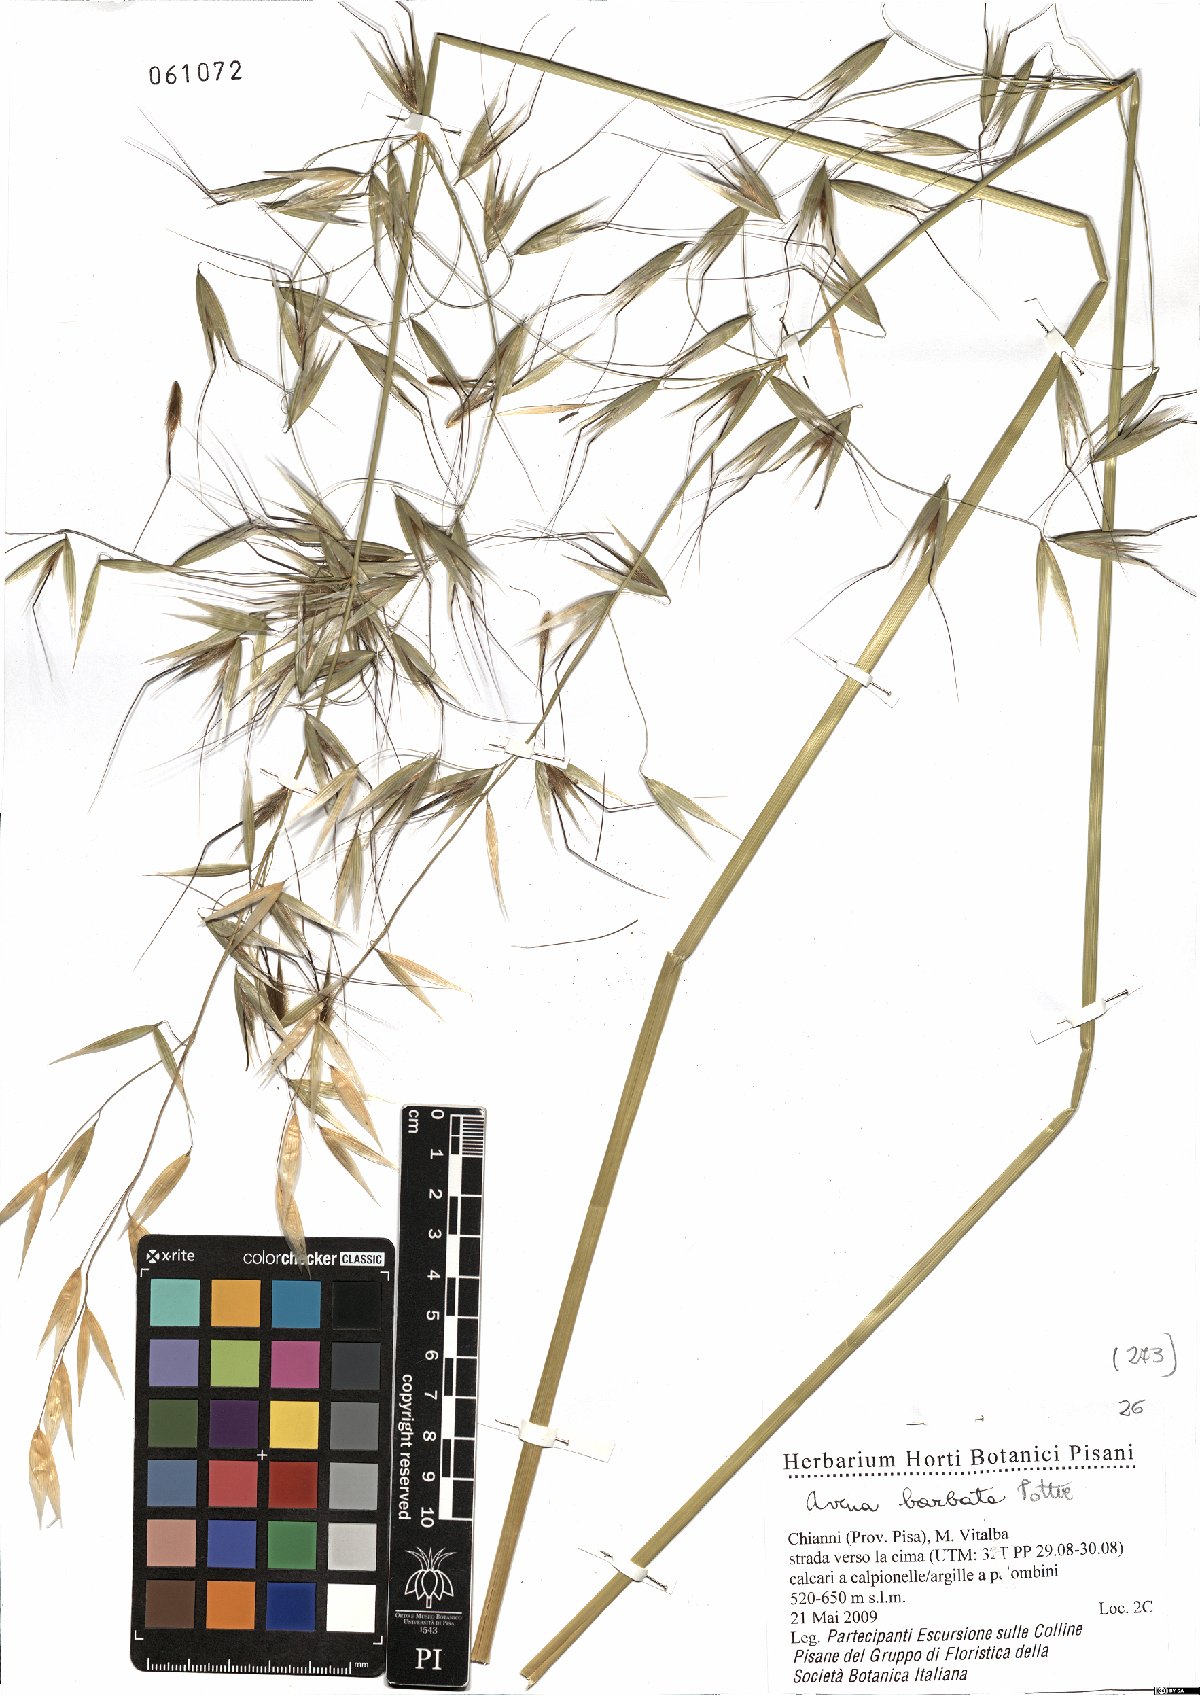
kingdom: Plantae
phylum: Tracheophyta
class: Liliopsida
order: Poales
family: Poaceae
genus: Avena
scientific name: Avena barbata
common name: Slender oat
